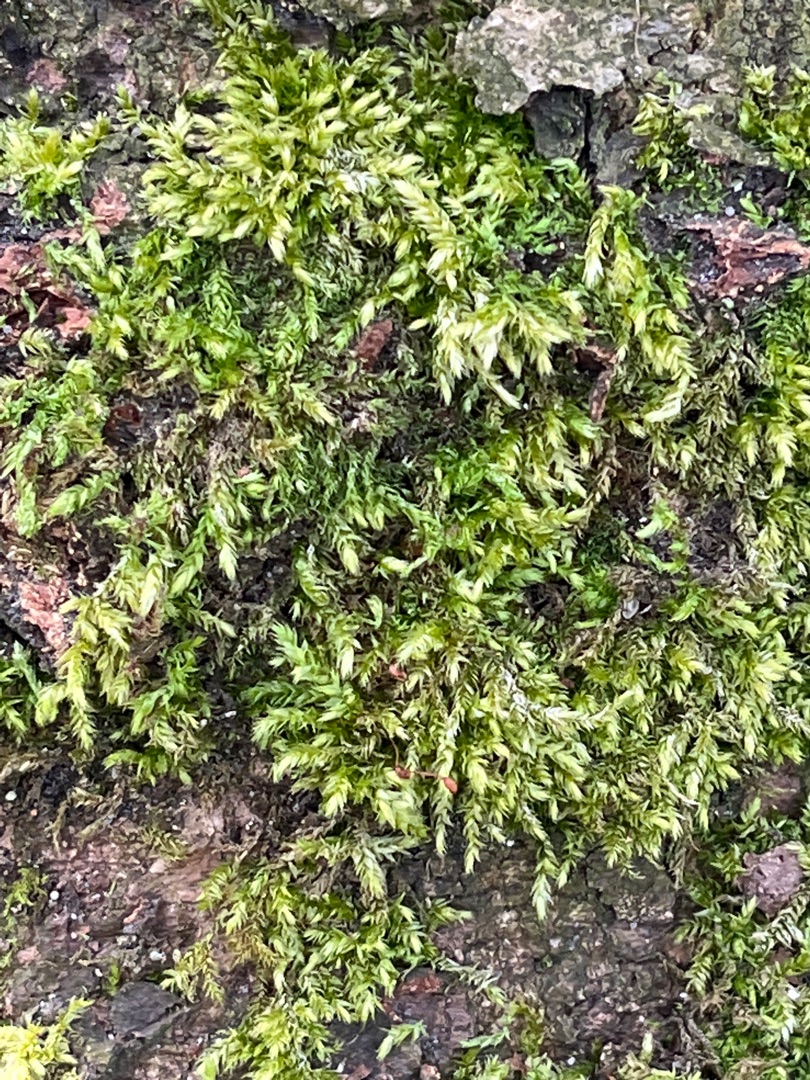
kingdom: Plantae
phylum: Bryophyta
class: Bryopsida
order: Hypnales
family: Brachytheciaceae
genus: Brachythecium
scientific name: Brachythecium rutabulum
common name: Almindelig kortkapsel
